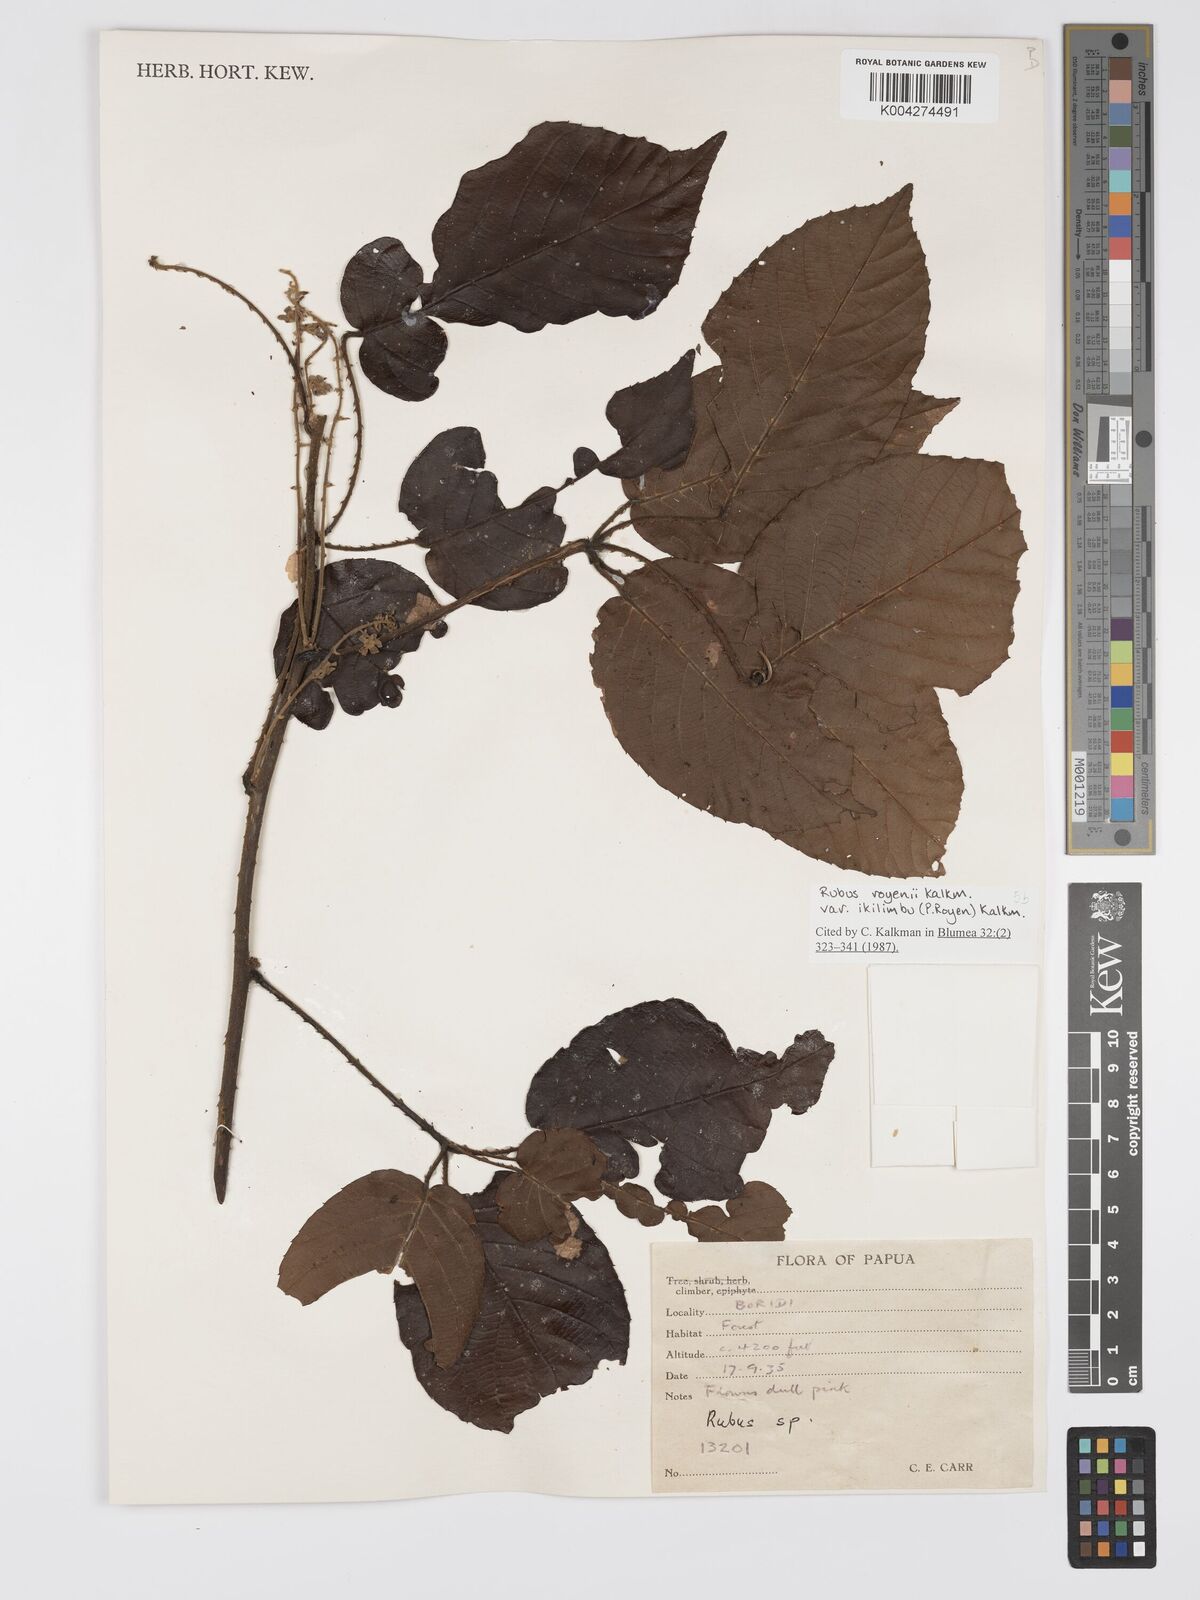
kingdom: Plantae
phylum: Tracheophyta
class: Magnoliopsida
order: Rosales
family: Rosaceae
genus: Rubus
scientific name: Rubus royenii
